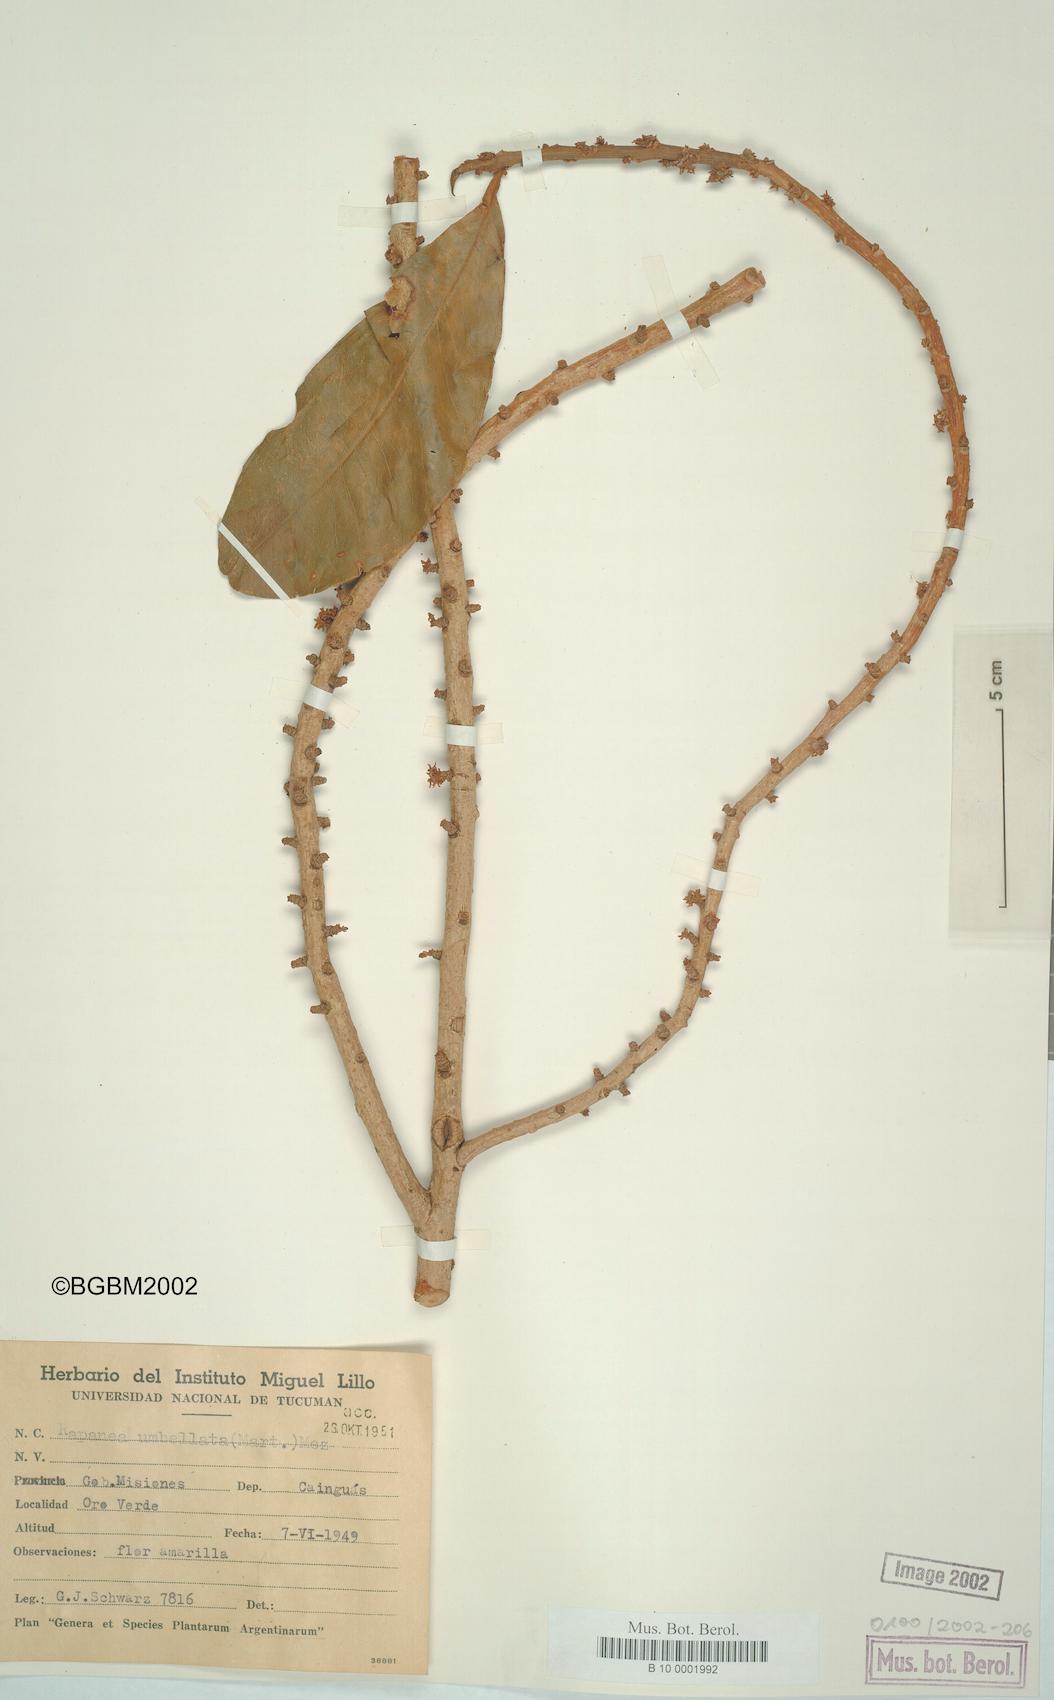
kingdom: Plantae
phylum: Tracheophyta
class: Magnoliopsida
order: Ericales
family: Primulaceae
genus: Myrsine
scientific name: Myrsine umbellata
